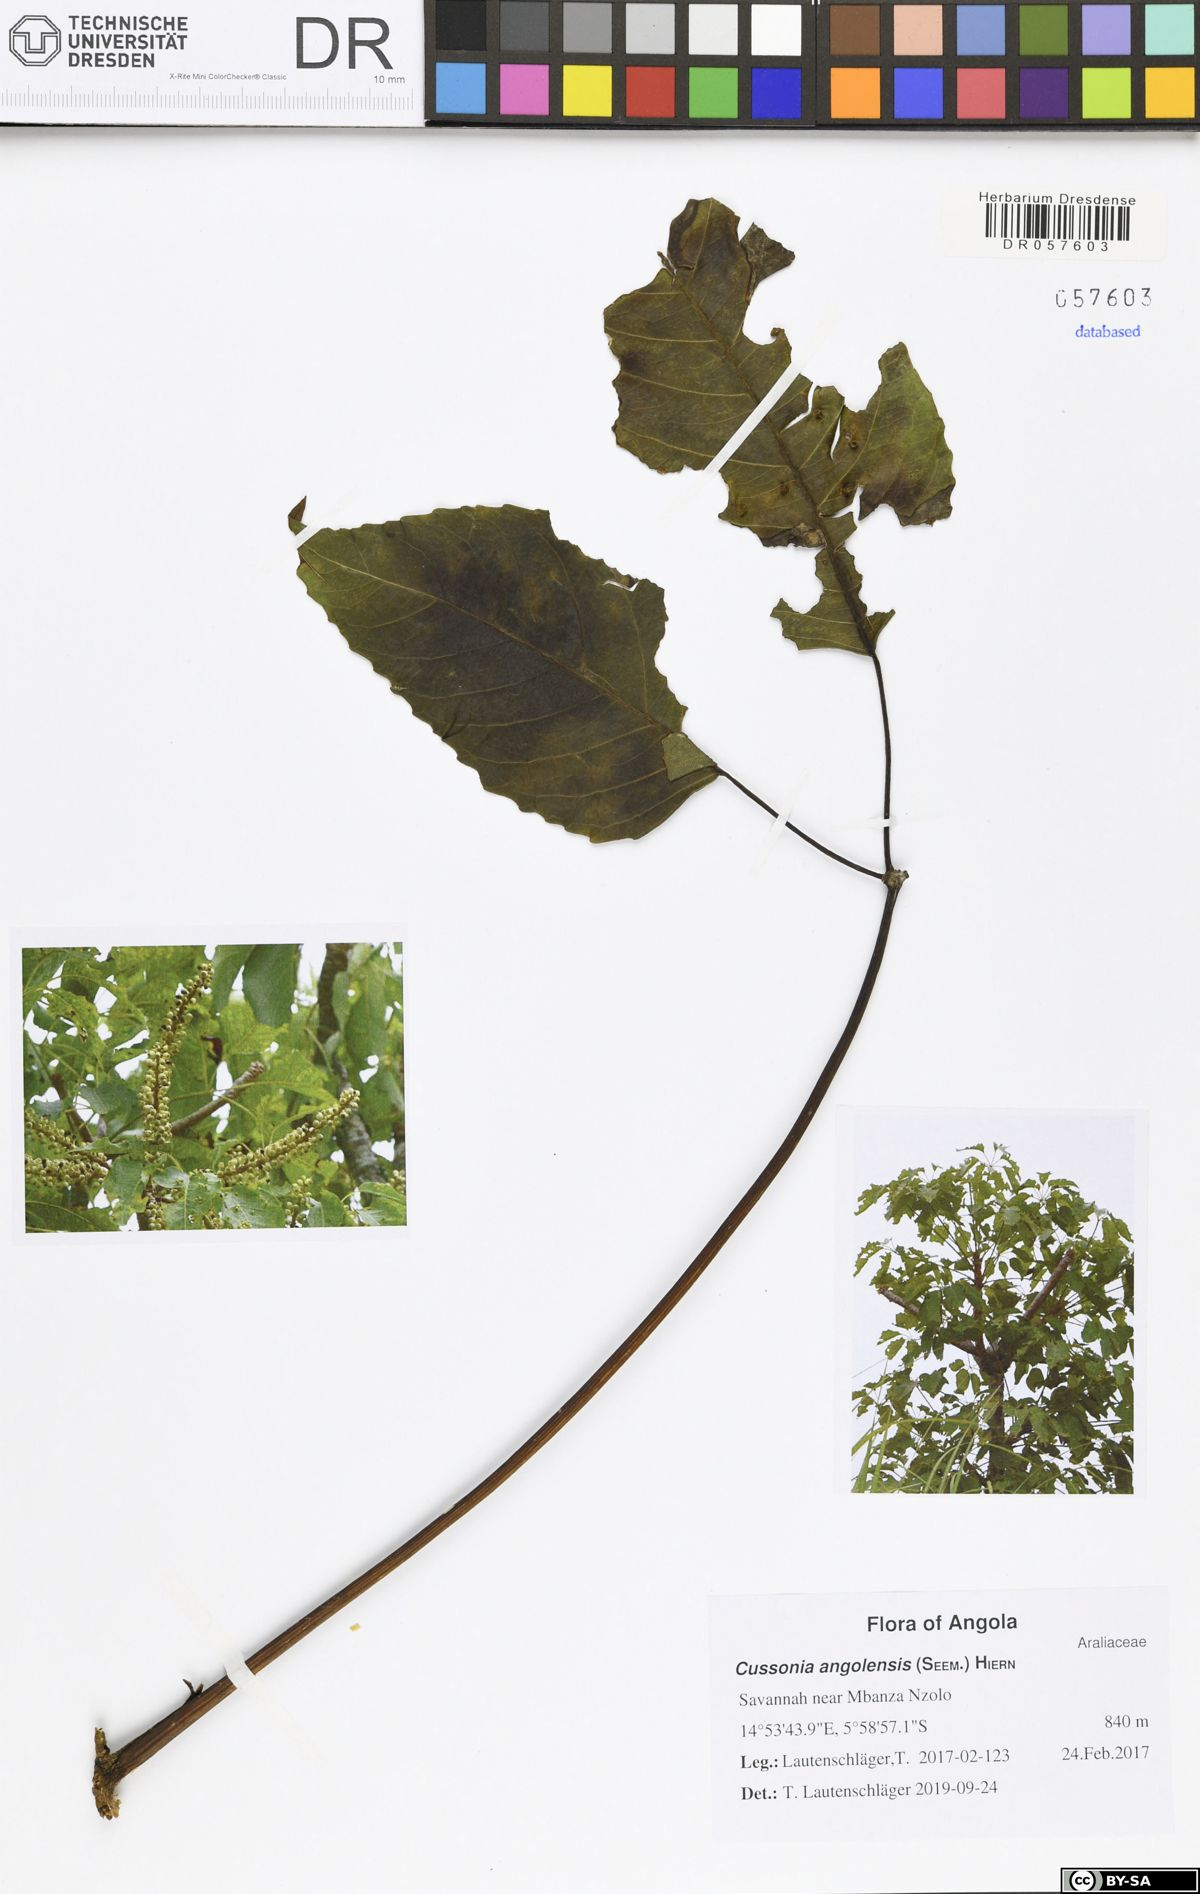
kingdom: Plantae
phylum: Tracheophyta
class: Magnoliopsida
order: Apiales
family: Araliaceae
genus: Cussonia
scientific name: Cussonia angolensis
